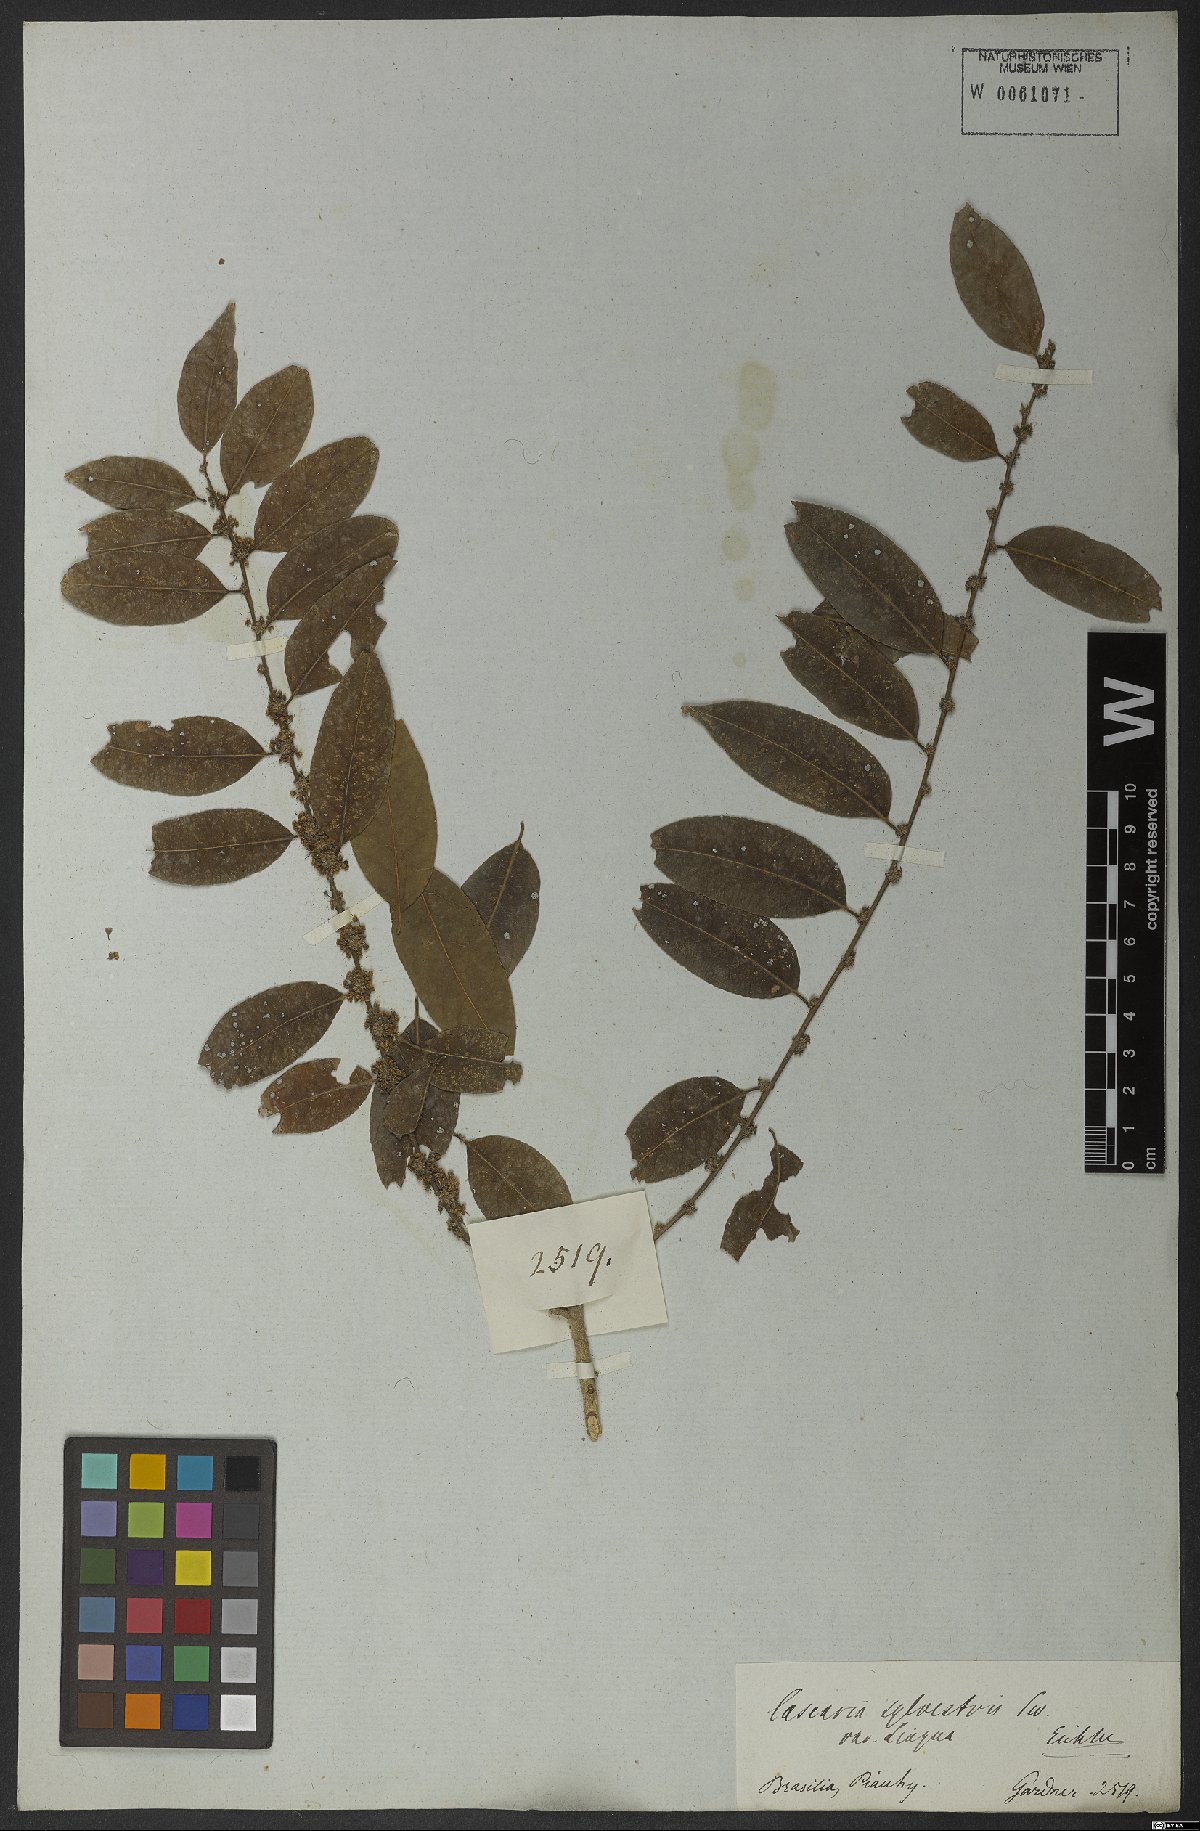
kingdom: Plantae
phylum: Tracheophyta
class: Magnoliopsida
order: Malpighiales
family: Salicaceae
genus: Casearia
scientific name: Casearia sylvestris
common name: Wild sage
